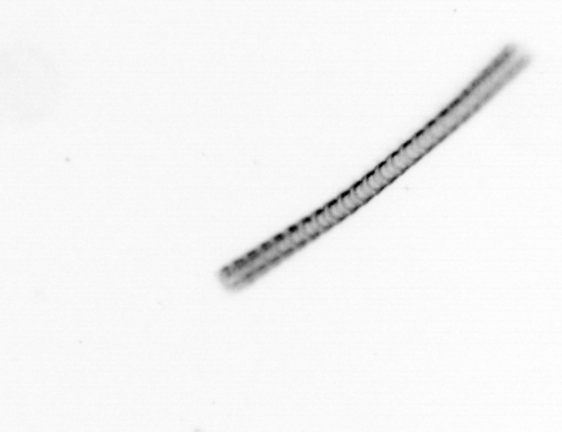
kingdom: Chromista
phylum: Ochrophyta
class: Bacillariophyceae
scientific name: Bacillariophyceae
